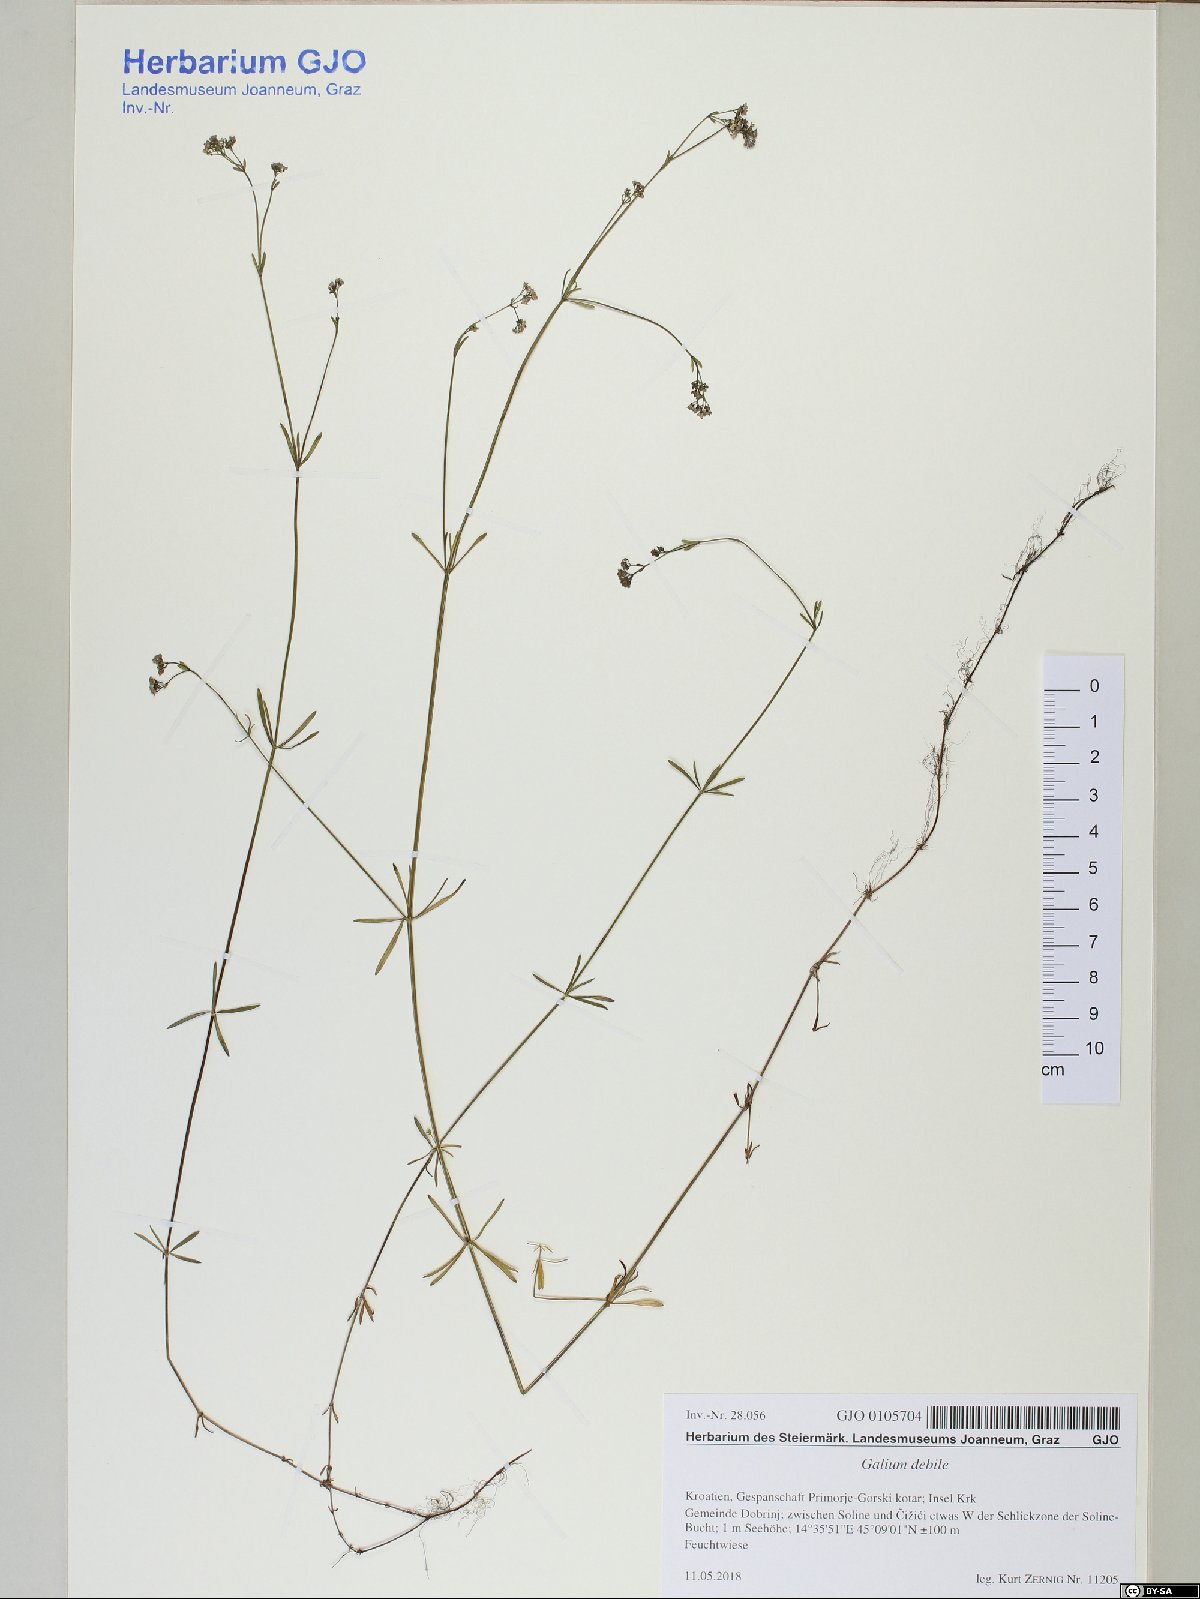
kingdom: Plantae
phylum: Tracheophyta
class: Magnoliopsida
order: Gentianales
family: Rubiaceae
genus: Galium
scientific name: Galium debile
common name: Slender marsh-bedstraw
